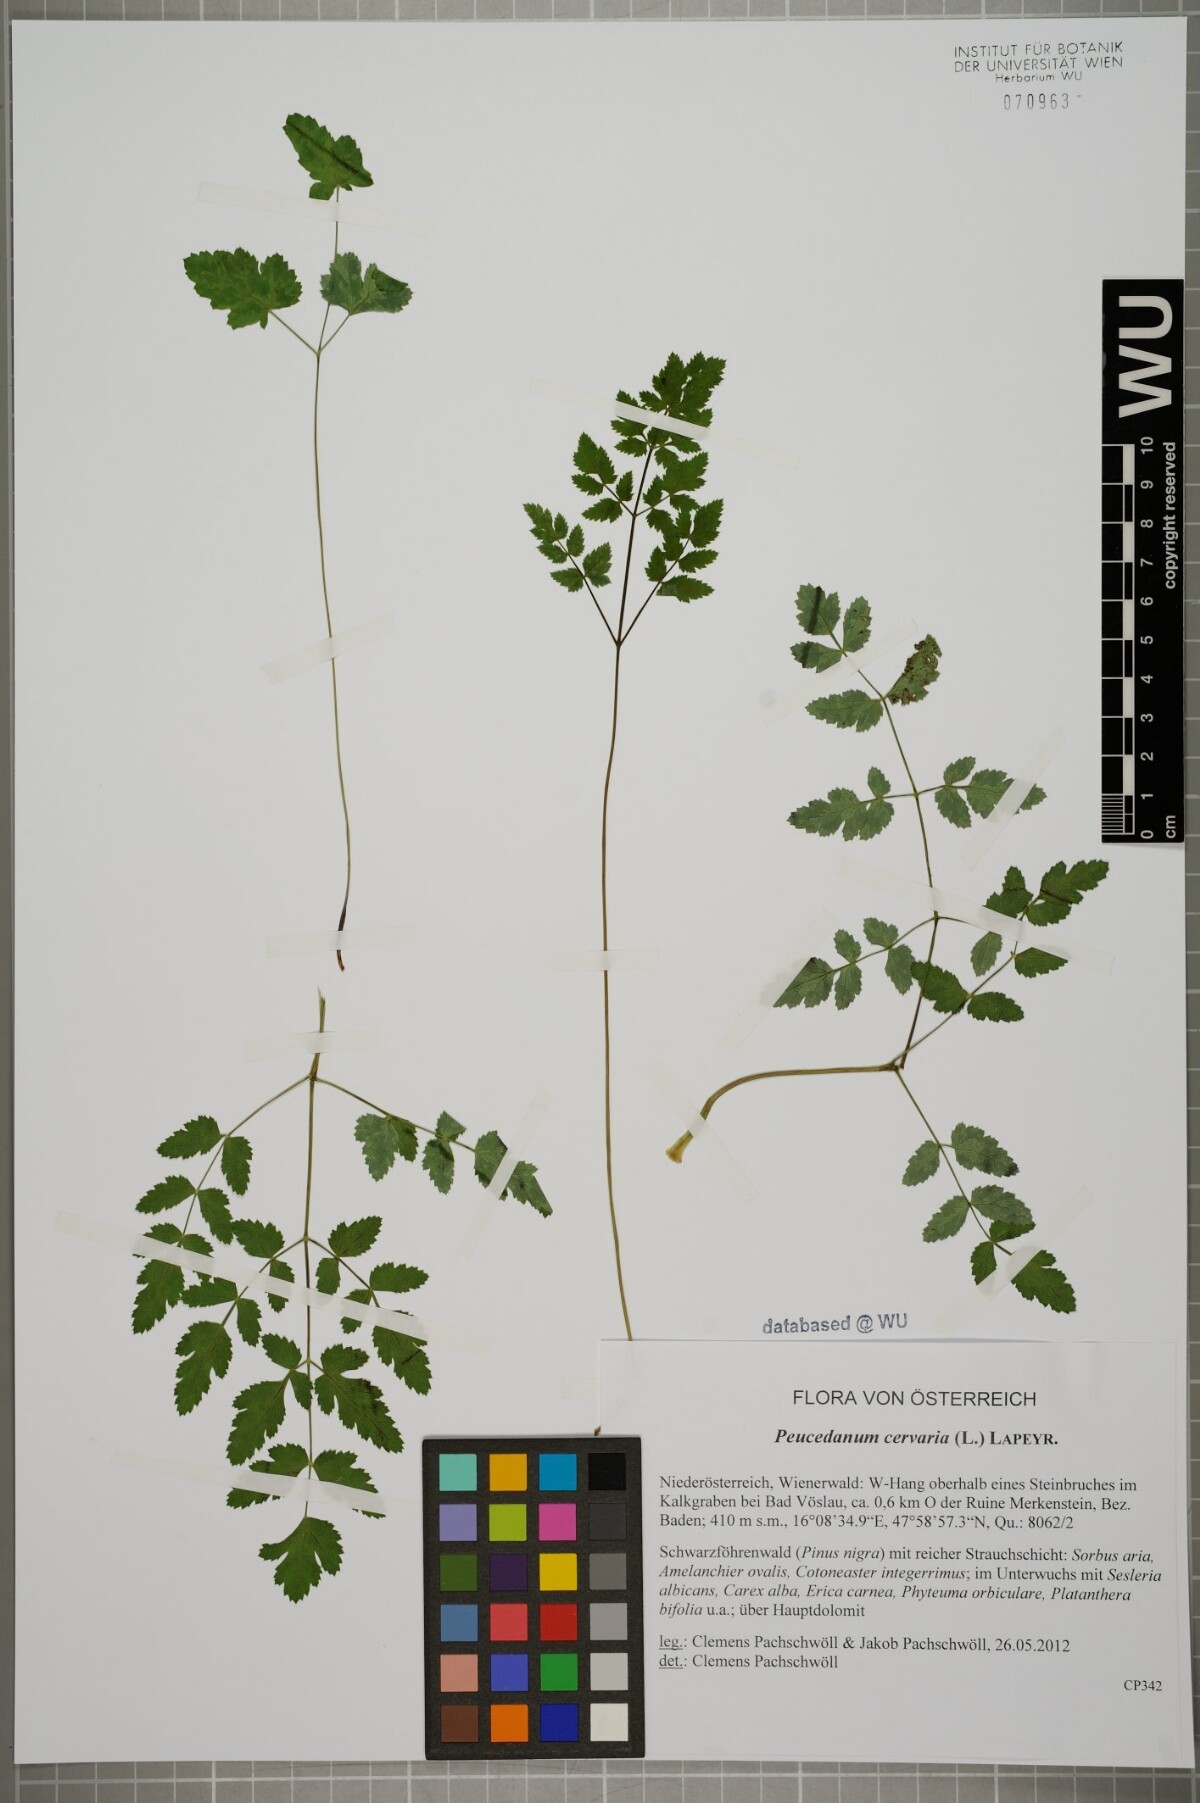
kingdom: Plantae
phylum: Tracheophyta
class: Magnoliopsida
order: Apiales
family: Apiaceae
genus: Cervaria
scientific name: Cervaria rivini
